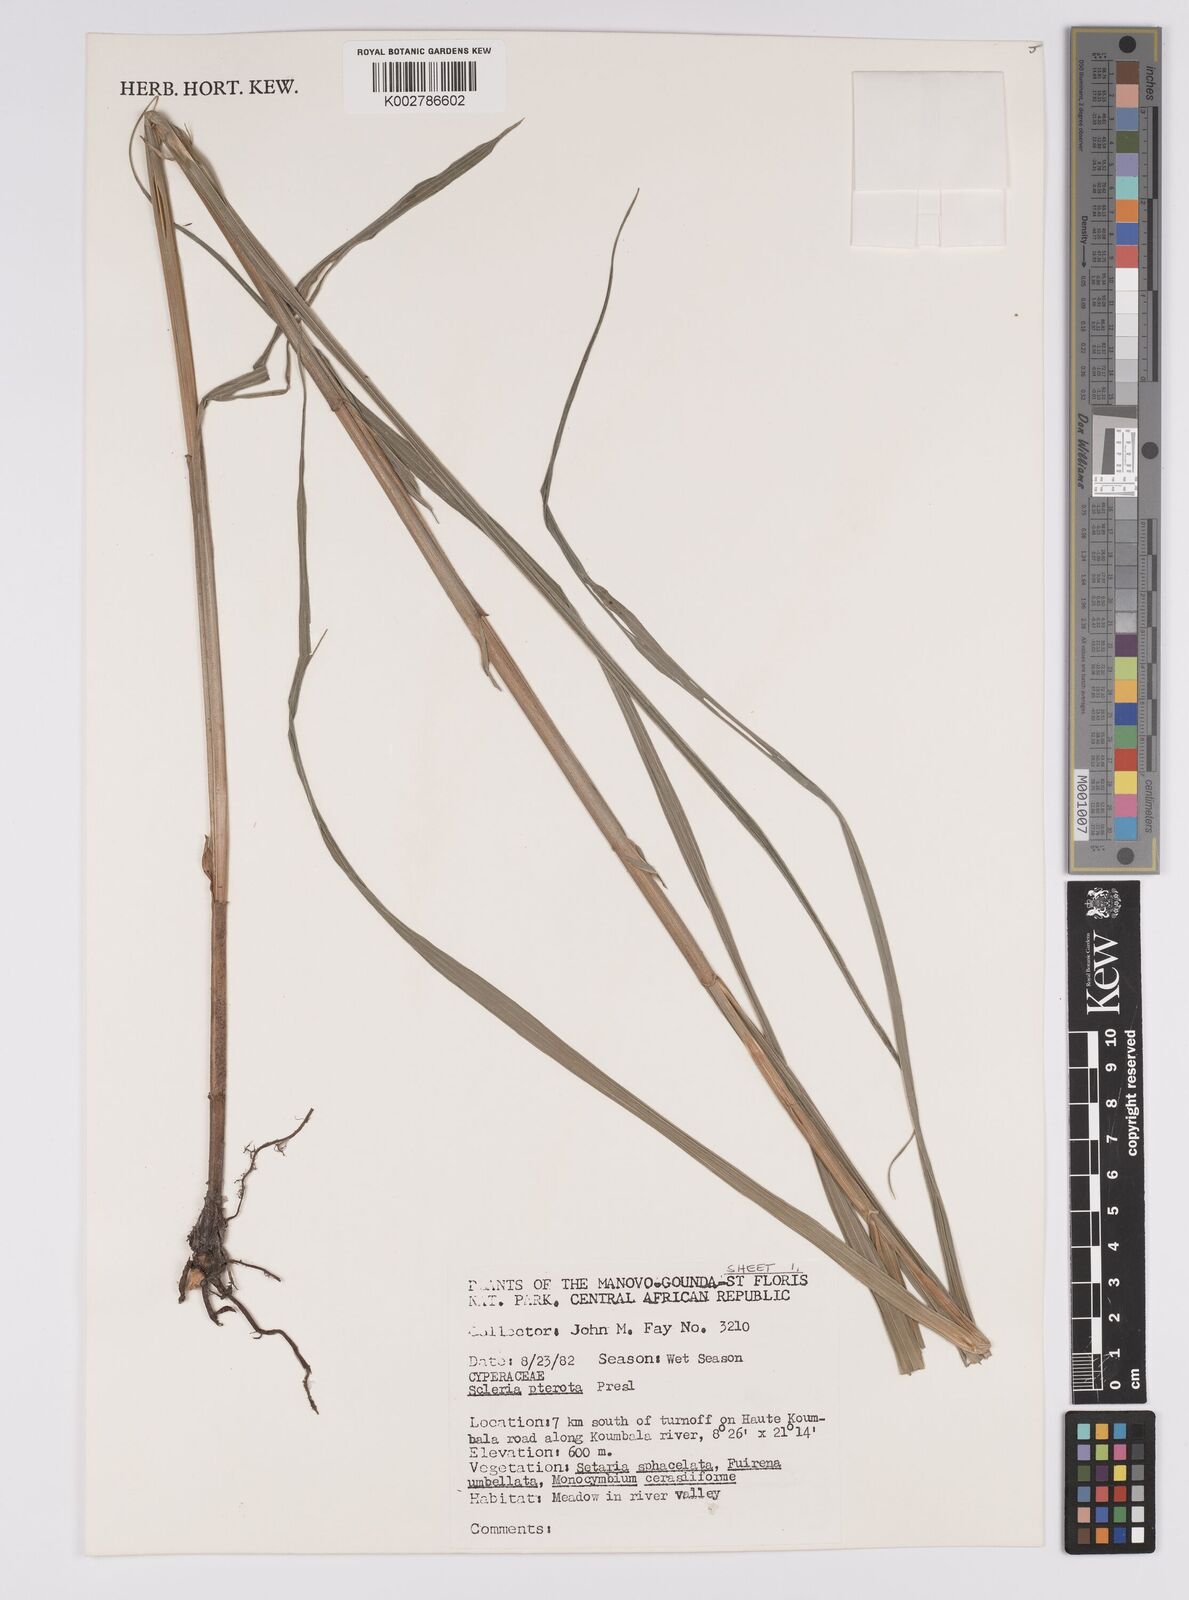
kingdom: Plantae
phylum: Tracheophyta
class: Liliopsida
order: Poales
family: Cyperaceae
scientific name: Cyperaceae
